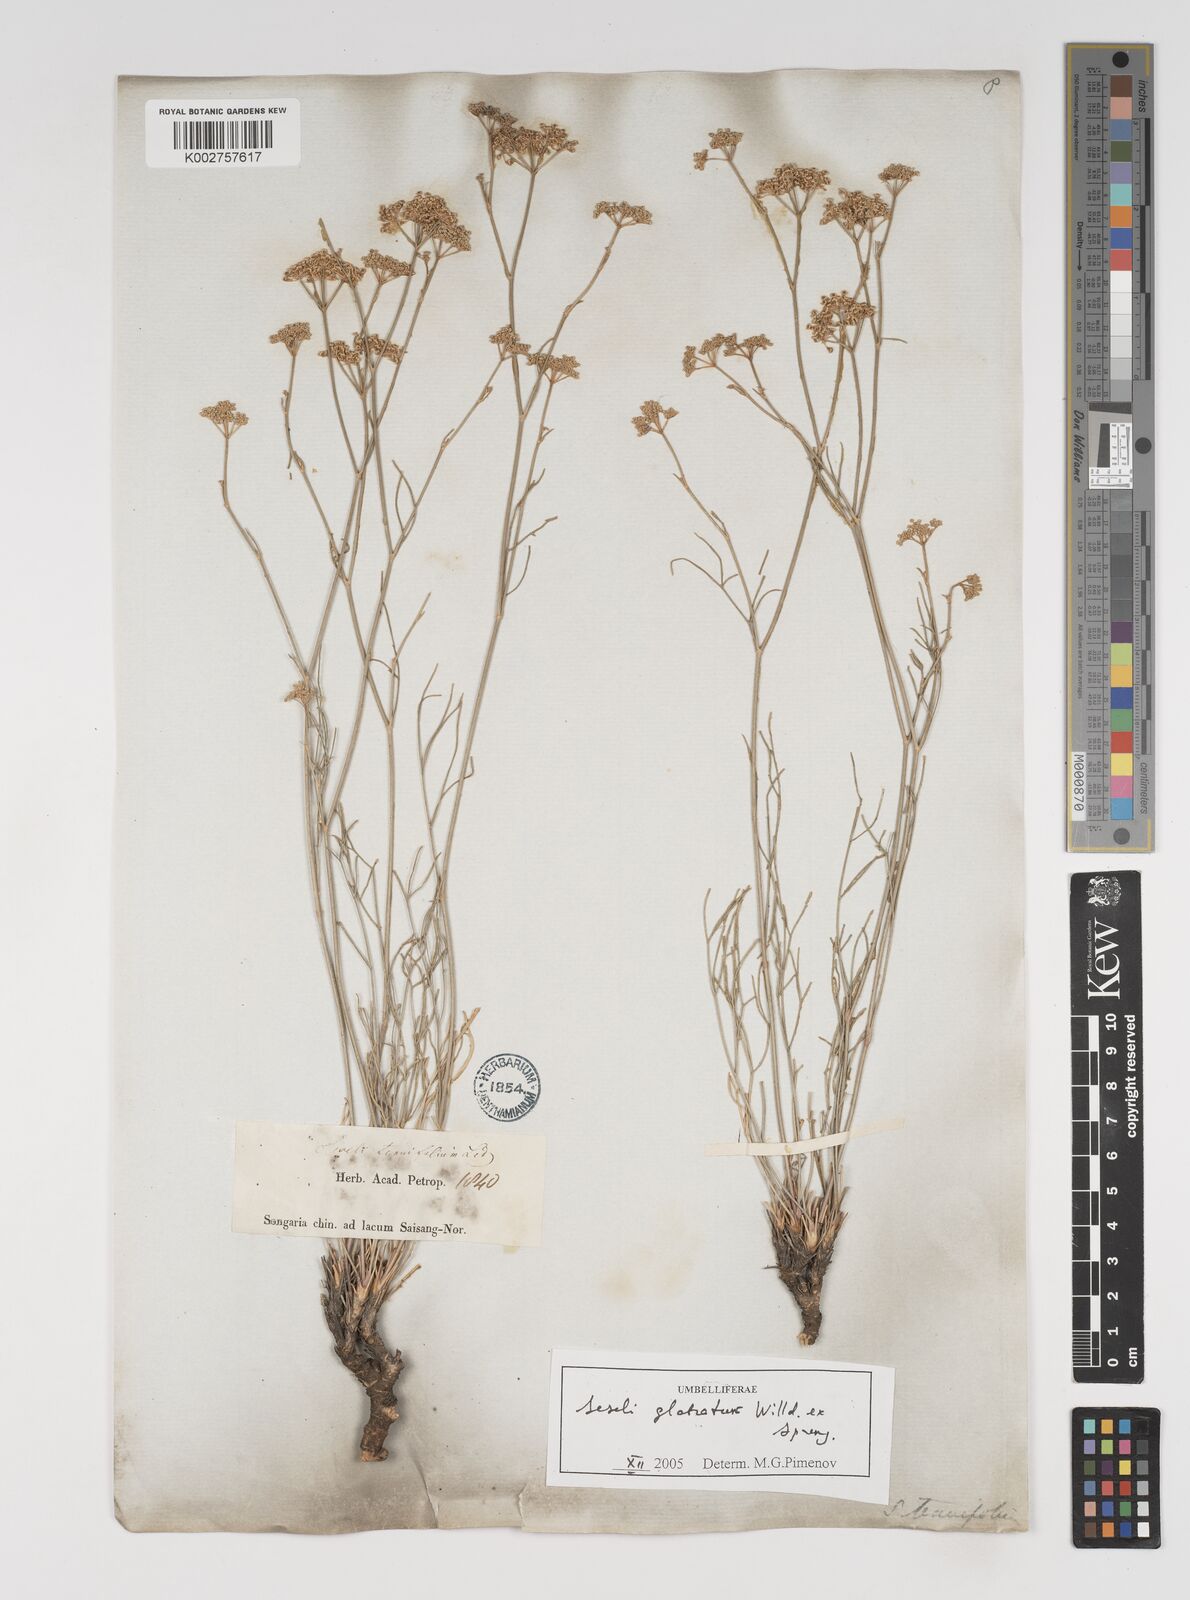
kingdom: Plantae
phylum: Tracheophyta
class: Magnoliopsida
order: Apiales
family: Apiaceae
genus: Seseli
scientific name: Seseli glabratum
